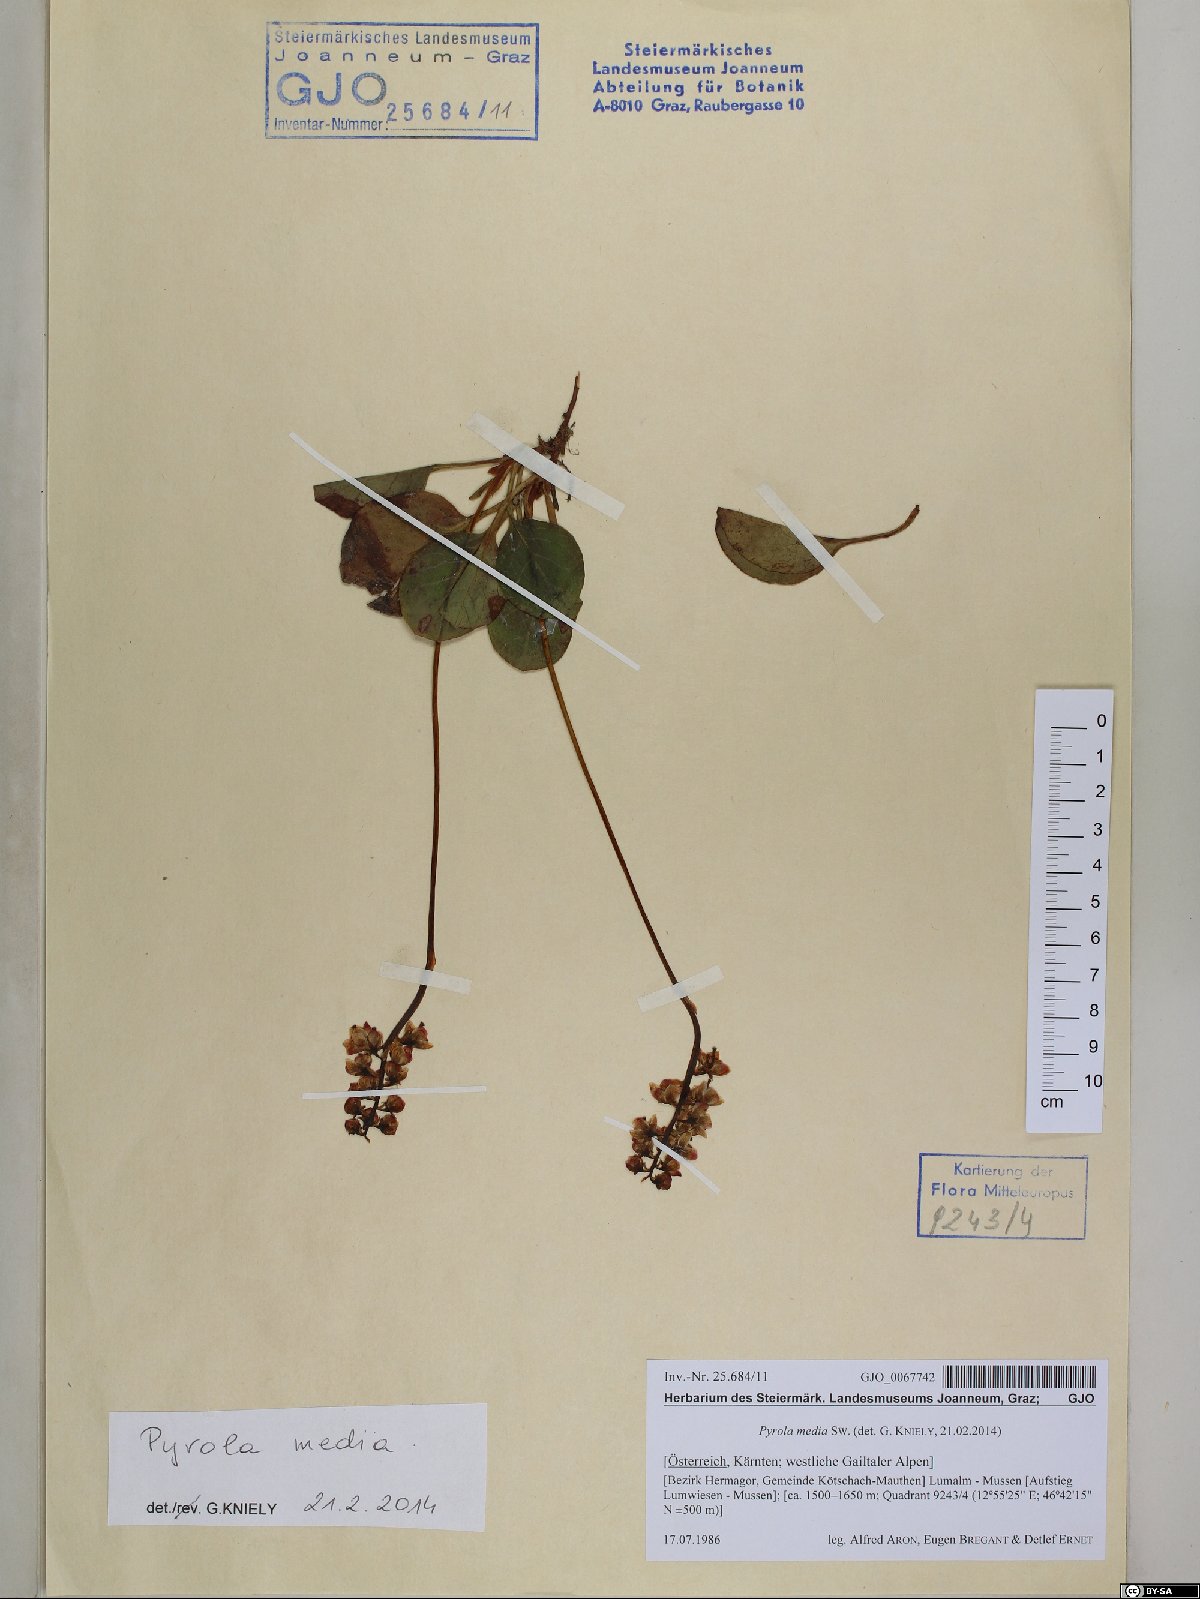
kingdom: Plantae
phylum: Tracheophyta
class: Magnoliopsida
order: Ericales
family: Ericaceae
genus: Pyrola
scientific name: Pyrola media
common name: Intermediate wintergreen
